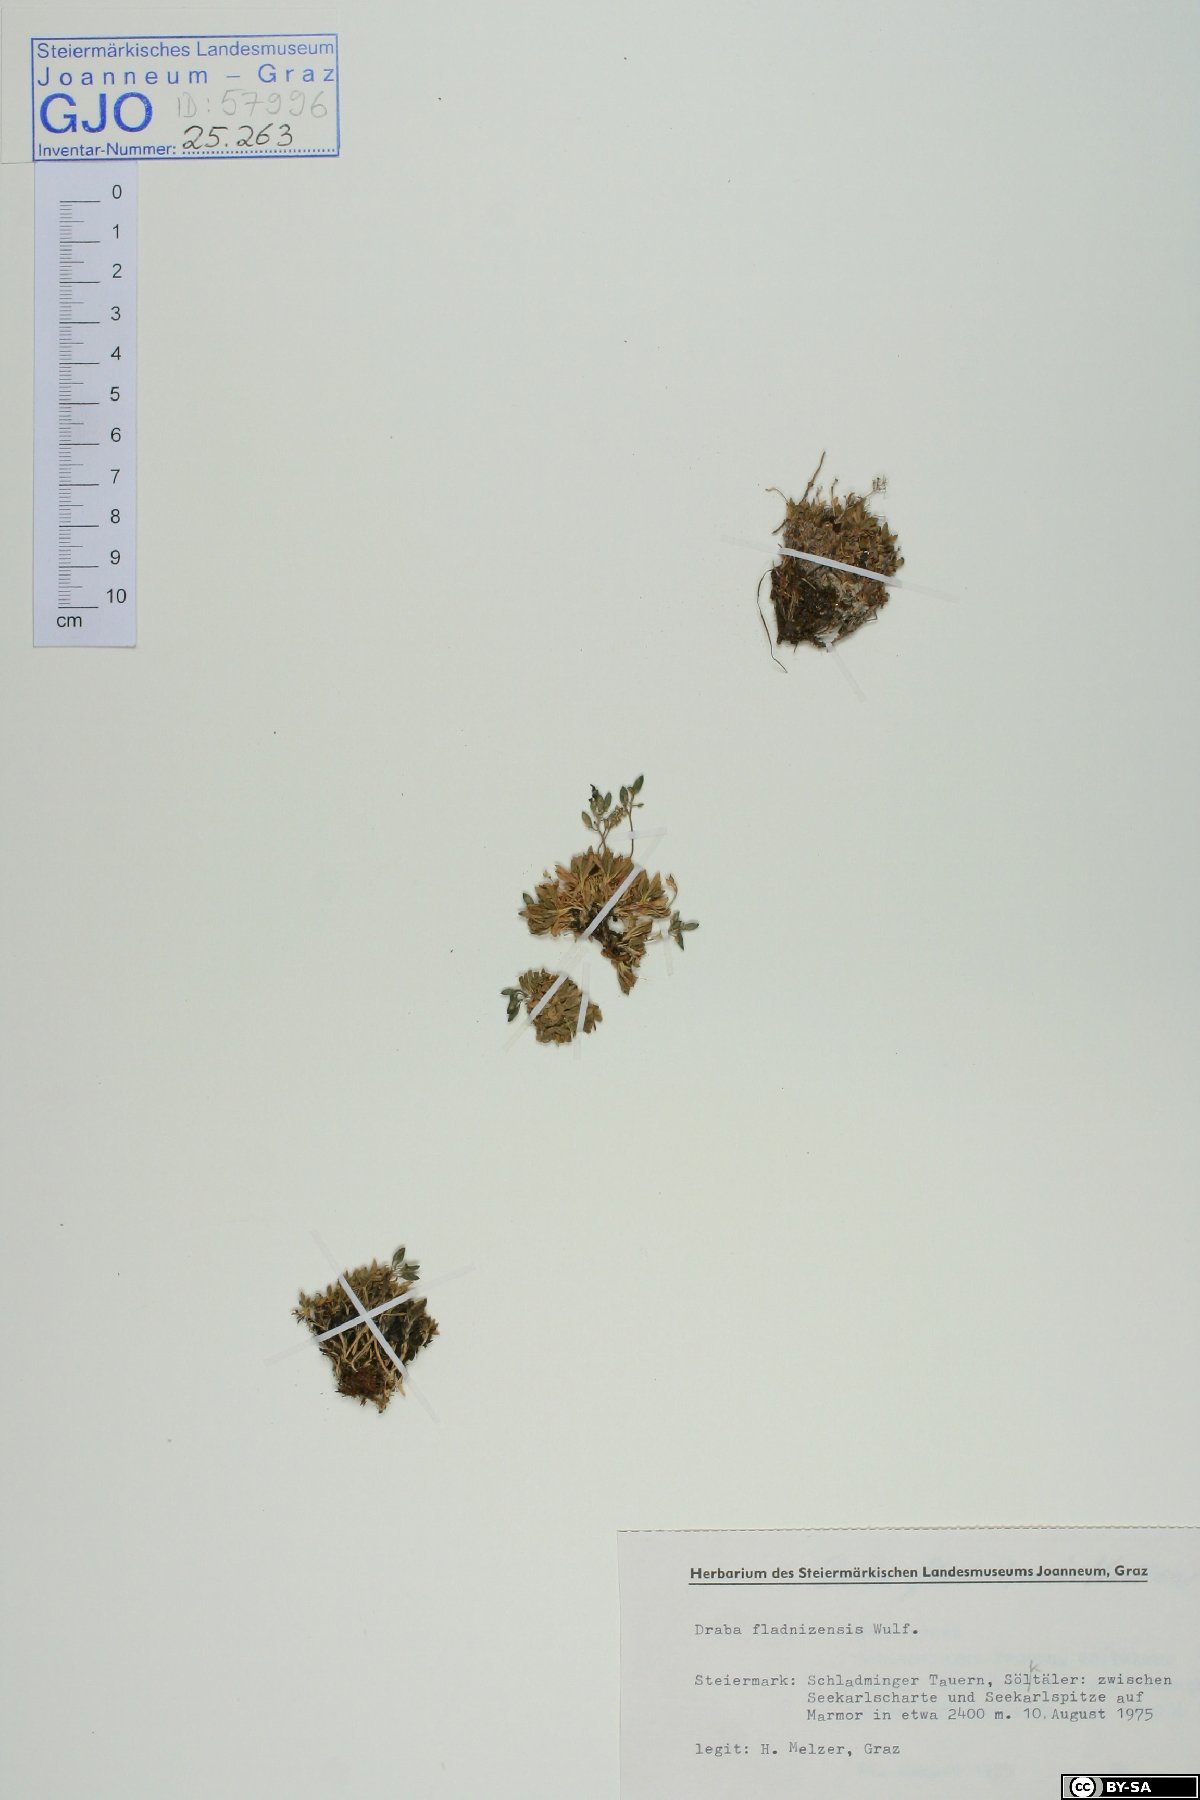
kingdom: Plantae
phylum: Tracheophyta
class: Magnoliopsida
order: Brassicales
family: Brassicaceae
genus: Draba
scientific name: Draba fladnizensis
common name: Austrian draba
